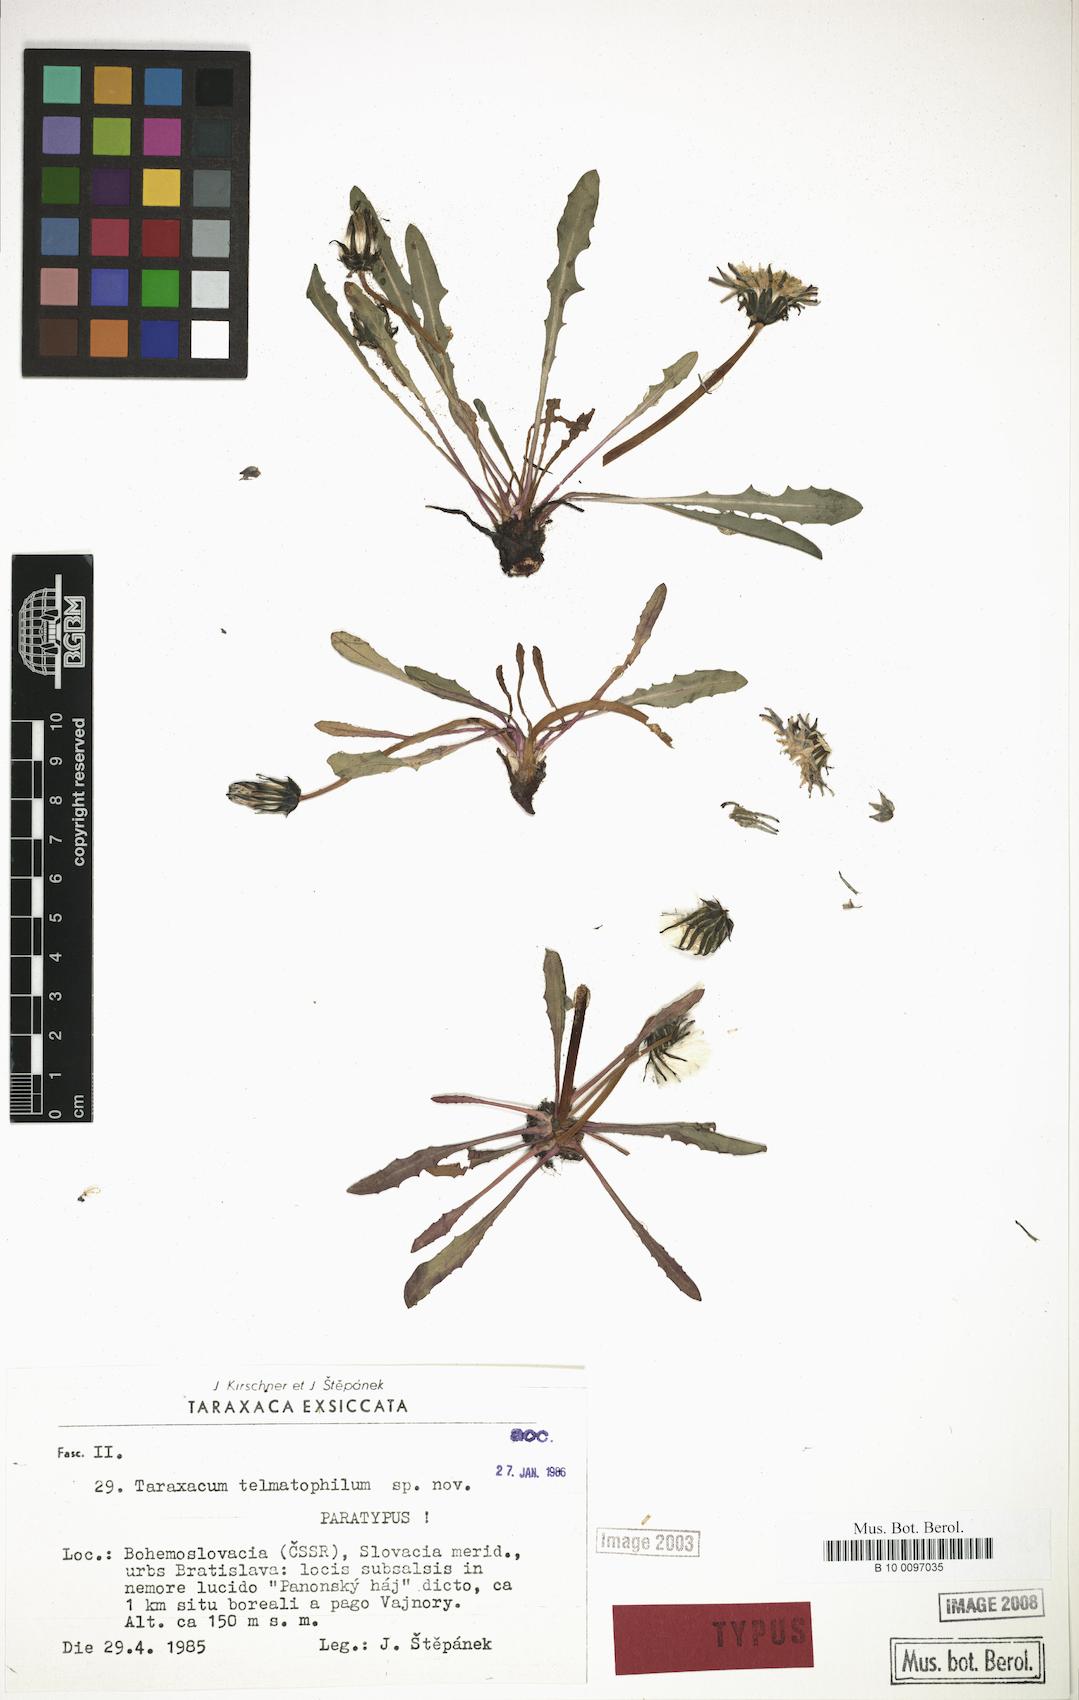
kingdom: Plantae
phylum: Tracheophyta
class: Magnoliopsida
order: Asterales
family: Asteraceae
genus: Taraxacum
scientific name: Taraxacum telmatophilum
